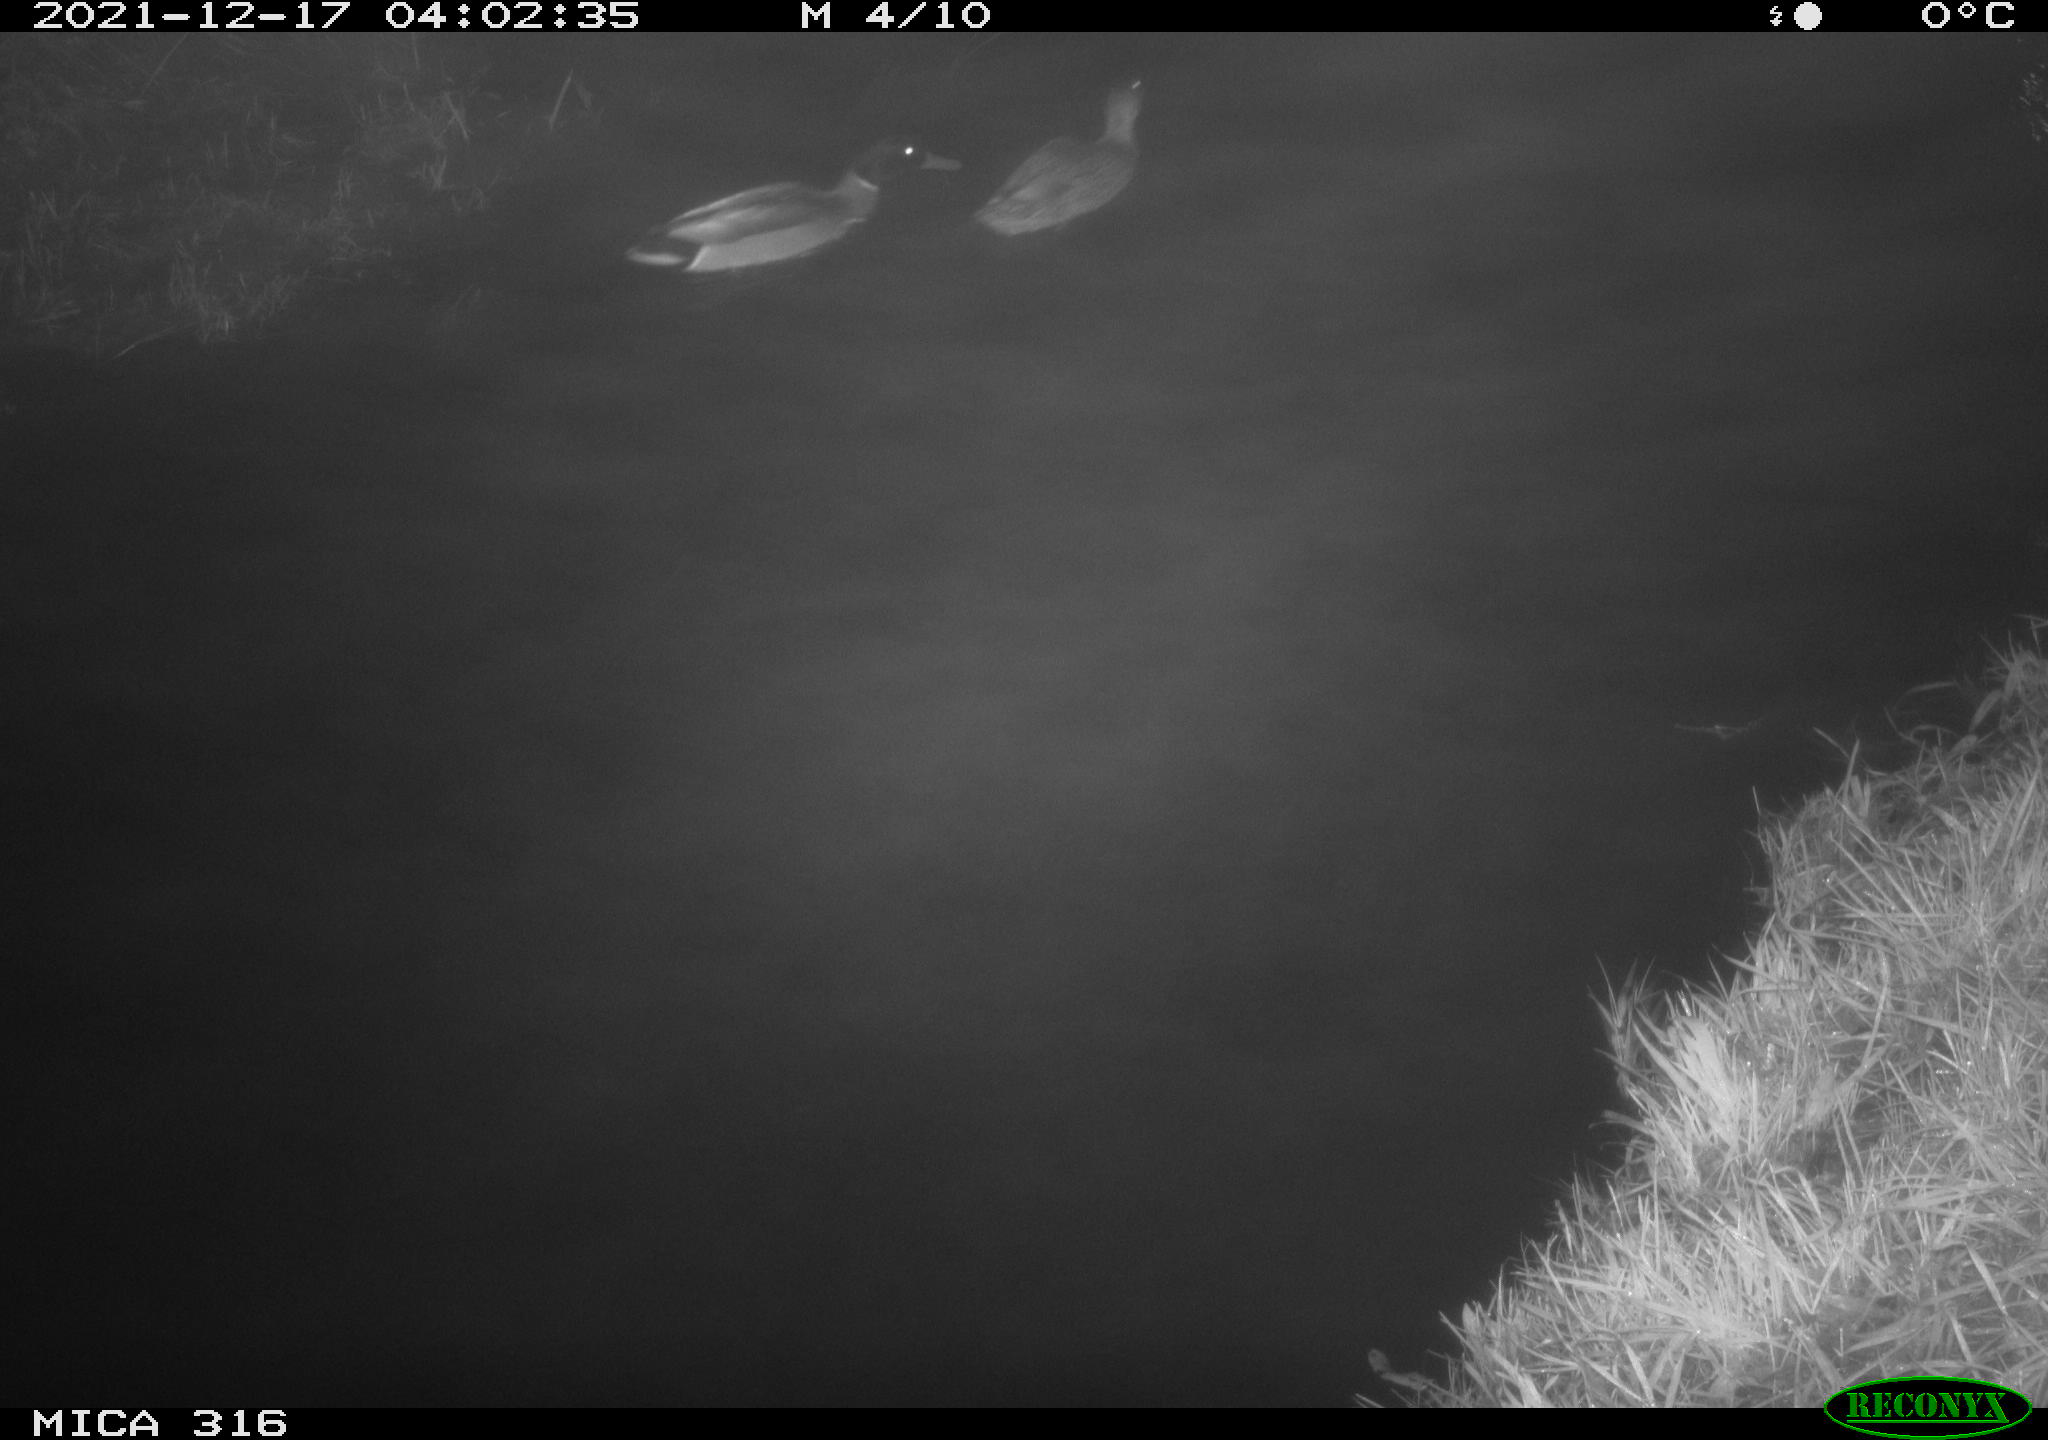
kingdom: Animalia
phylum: Chordata
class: Aves
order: Anseriformes
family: Anatidae
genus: Anas
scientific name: Anas platyrhynchos
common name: Mallard
